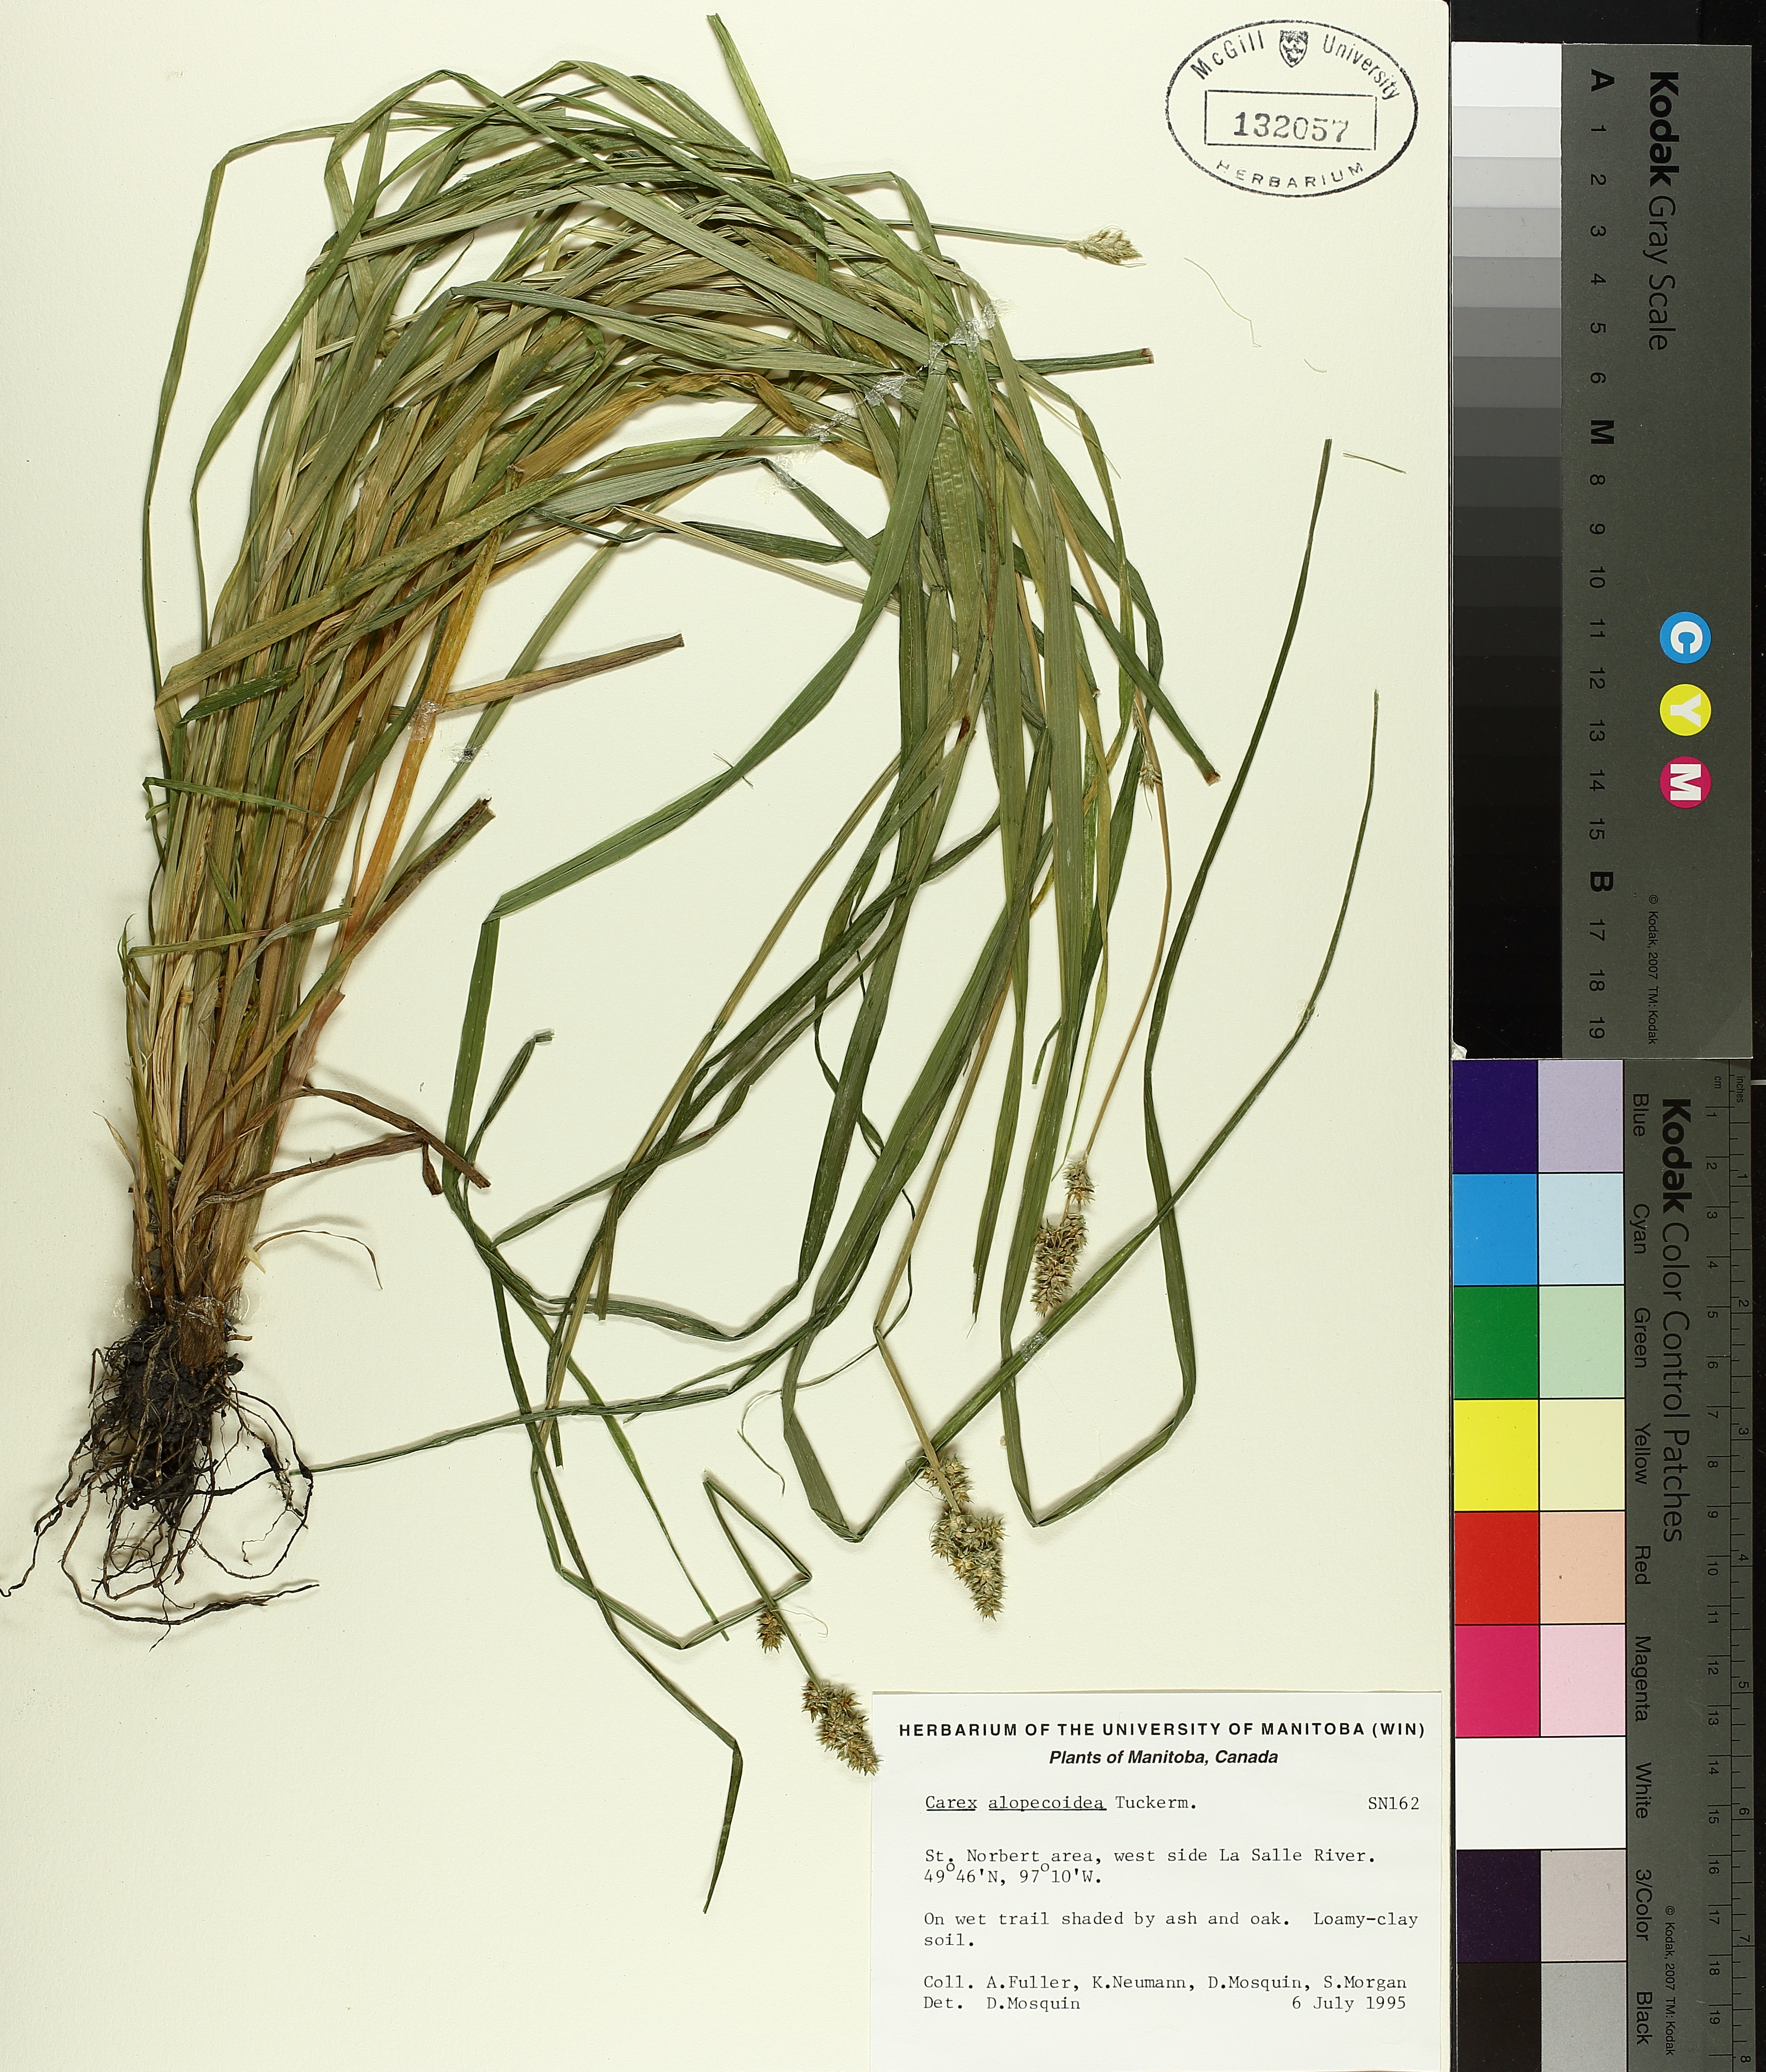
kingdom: Plantae
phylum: Tracheophyta
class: Liliopsida
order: Poales
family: Cyperaceae
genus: Carex
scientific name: Carex alopecoidea
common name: Brown-headed fox sedge
